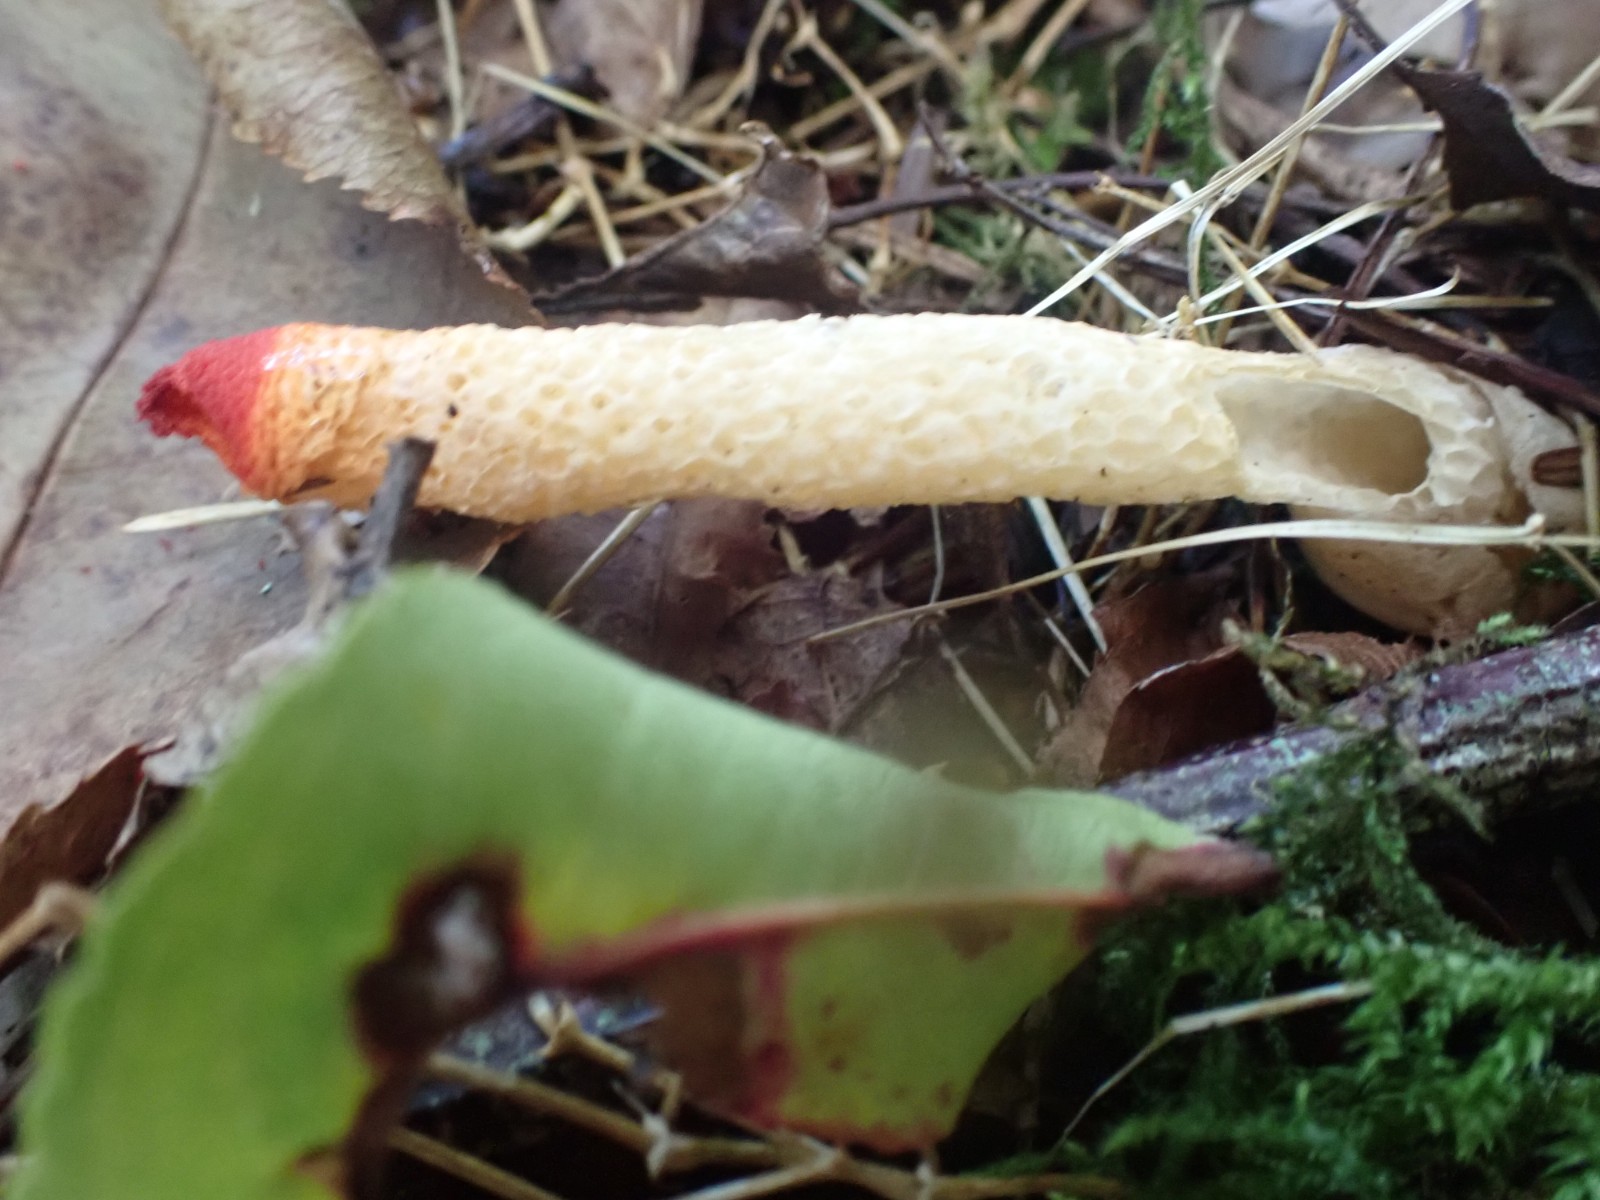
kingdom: Fungi
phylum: Basidiomycota
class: Agaricomycetes
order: Phallales
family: Phallaceae
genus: Mutinus
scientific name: Mutinus caninus
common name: hunde-stinksvamp
